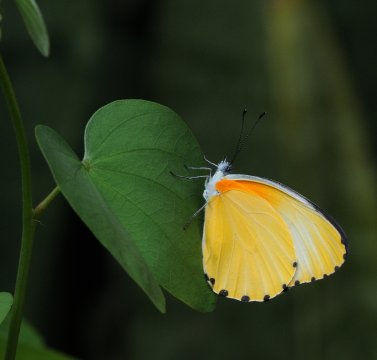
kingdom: Animalia
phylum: Arthropoda
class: Insecta
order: Lepidoptera
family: Pieridae
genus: Mylothris
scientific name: Mylothris agathina
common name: Eastern Dotted Border
